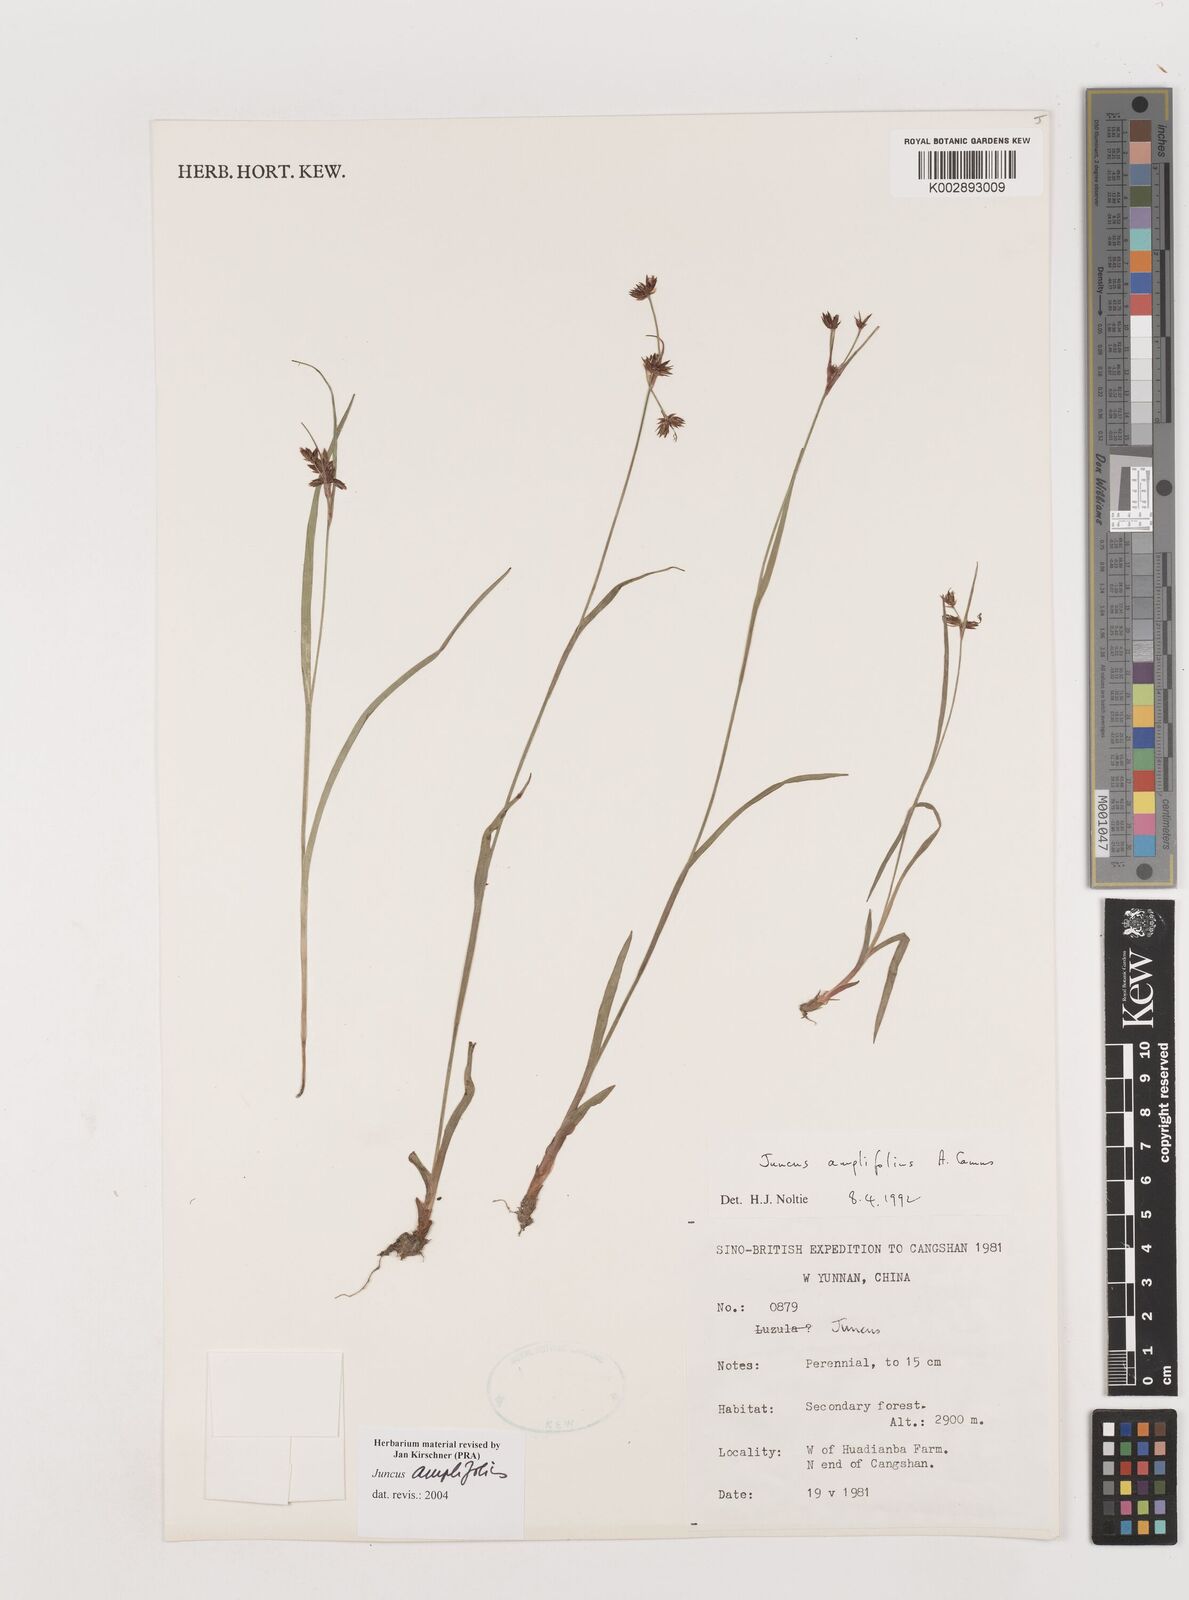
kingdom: Plantae
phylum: Tracheophyta
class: Liliopsida
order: Poales
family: Juncaceae
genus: Juncus
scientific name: Juncus amplifolius
